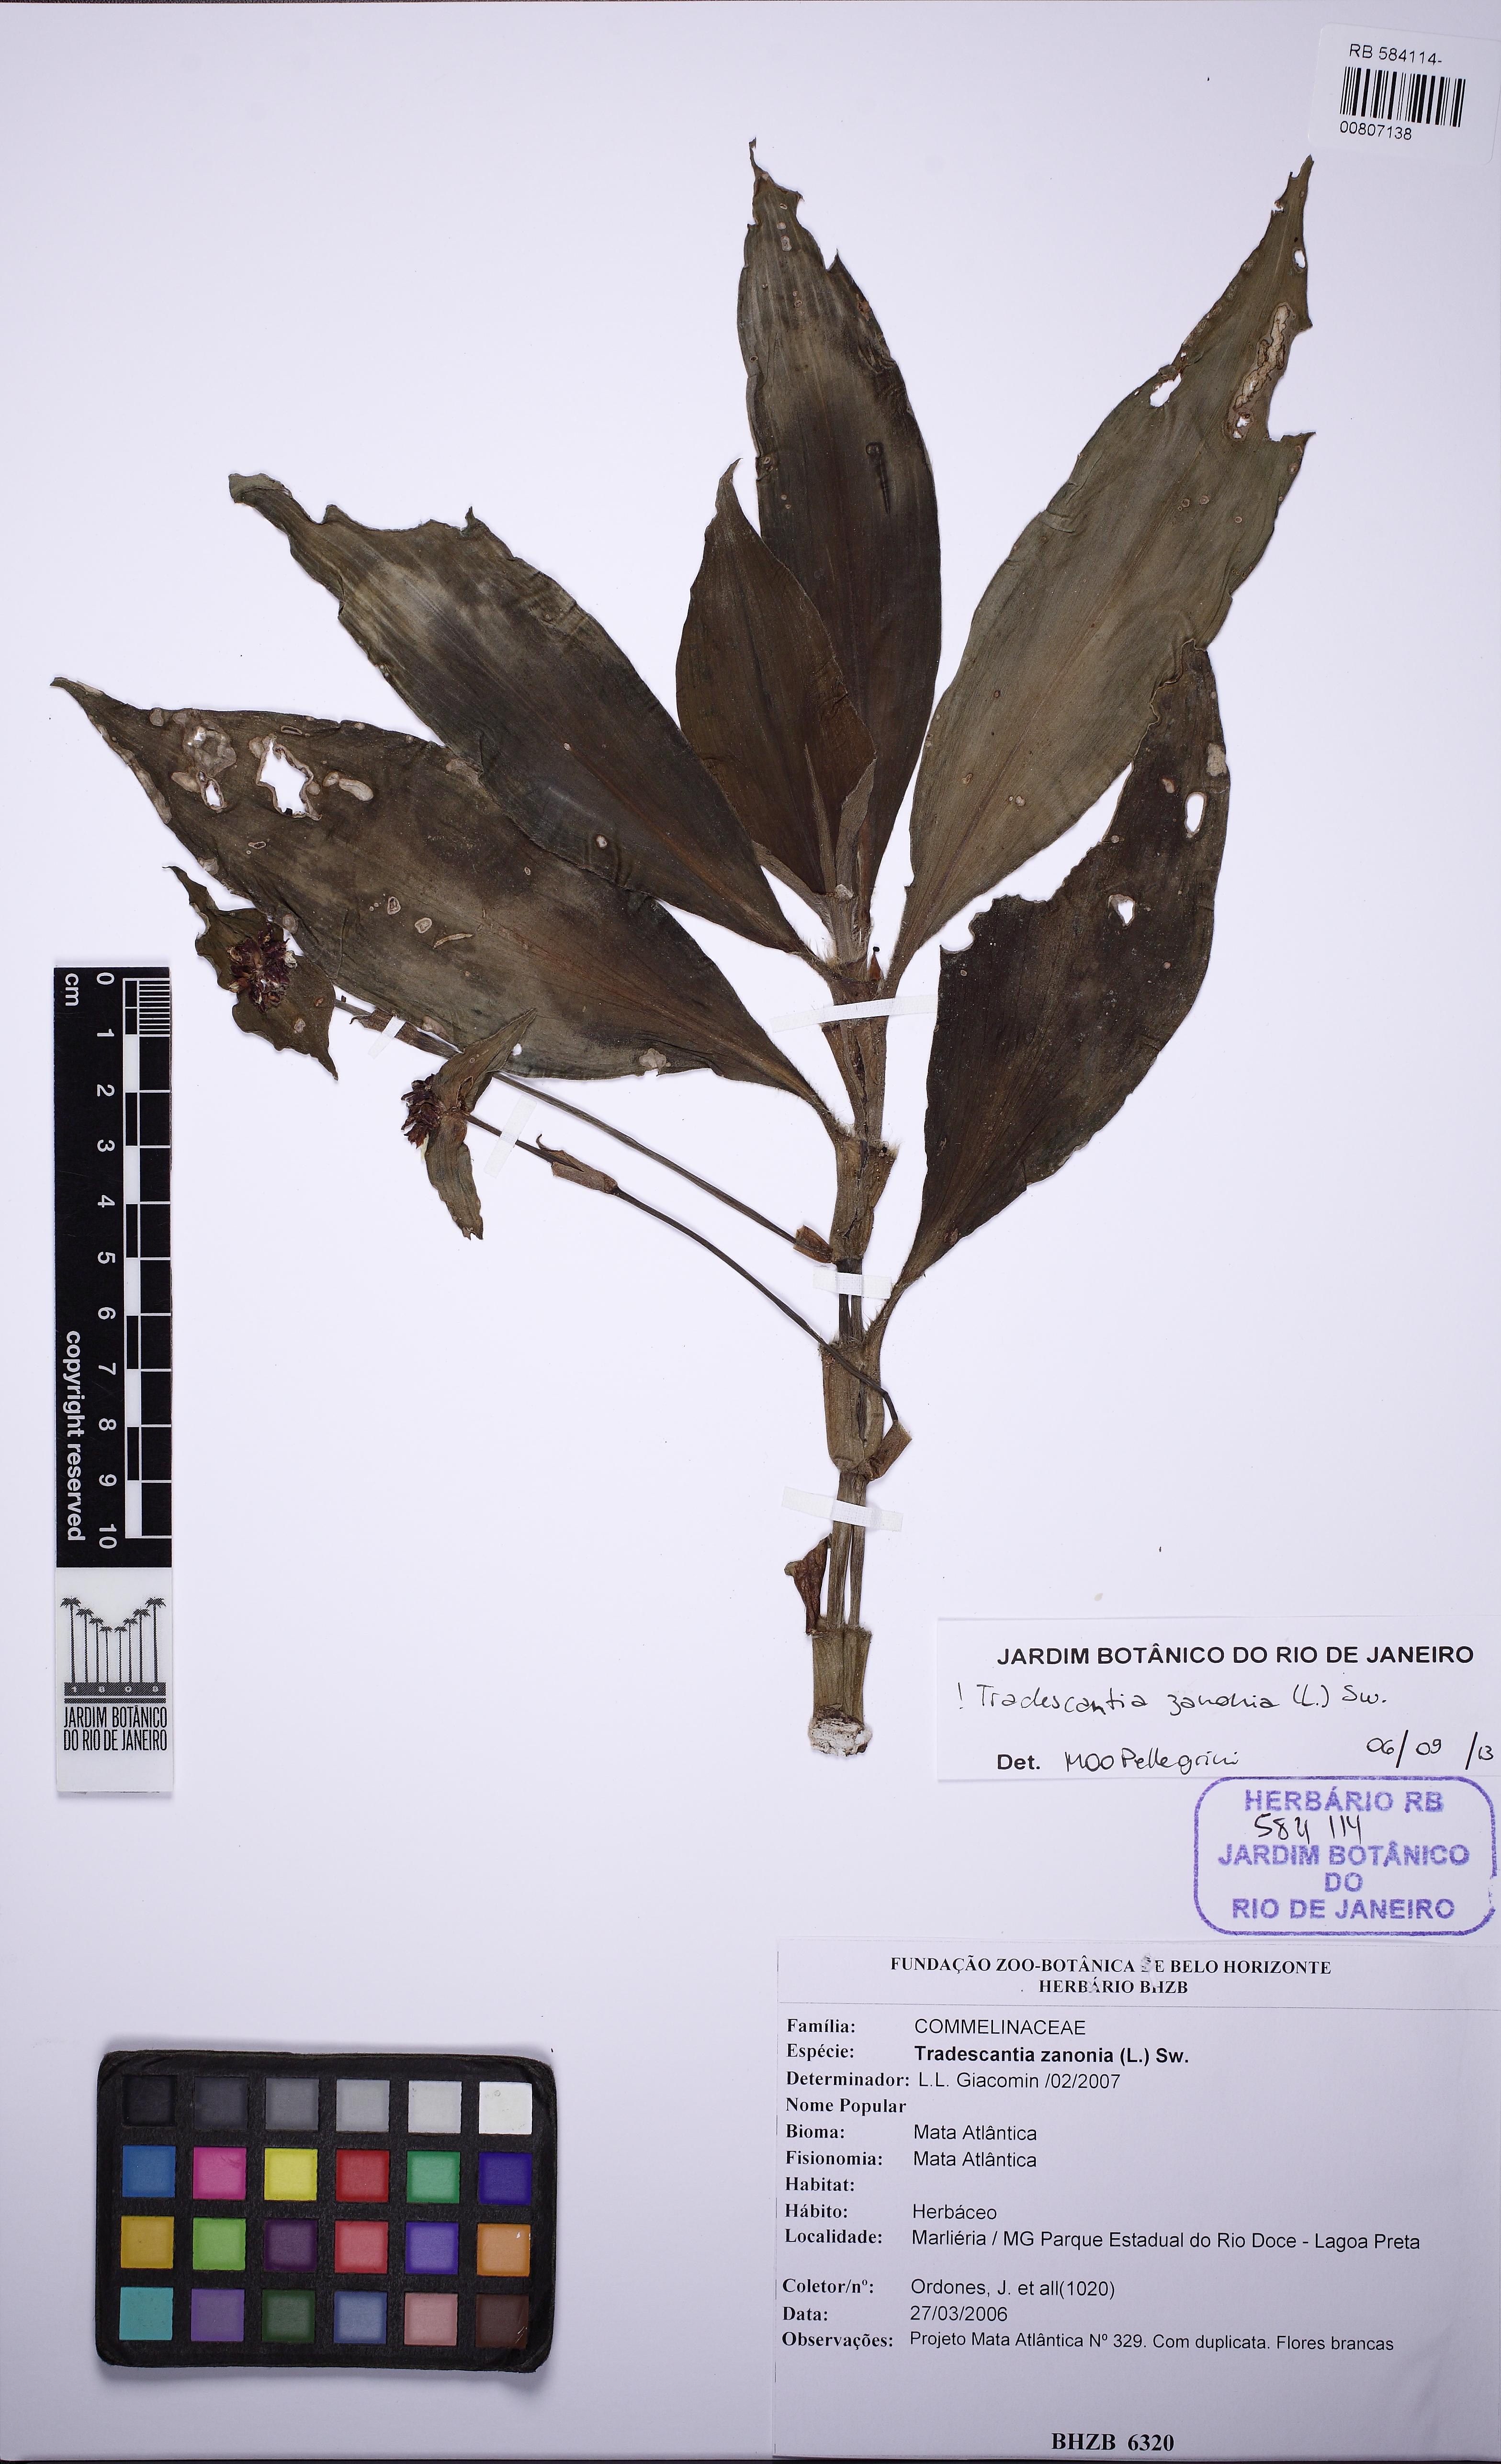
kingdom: Plantae
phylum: Tracheophyta
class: Liliopsida
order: Commelinales
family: Commelinaceae
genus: Tradescantia
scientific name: Tradescantia zanonia
